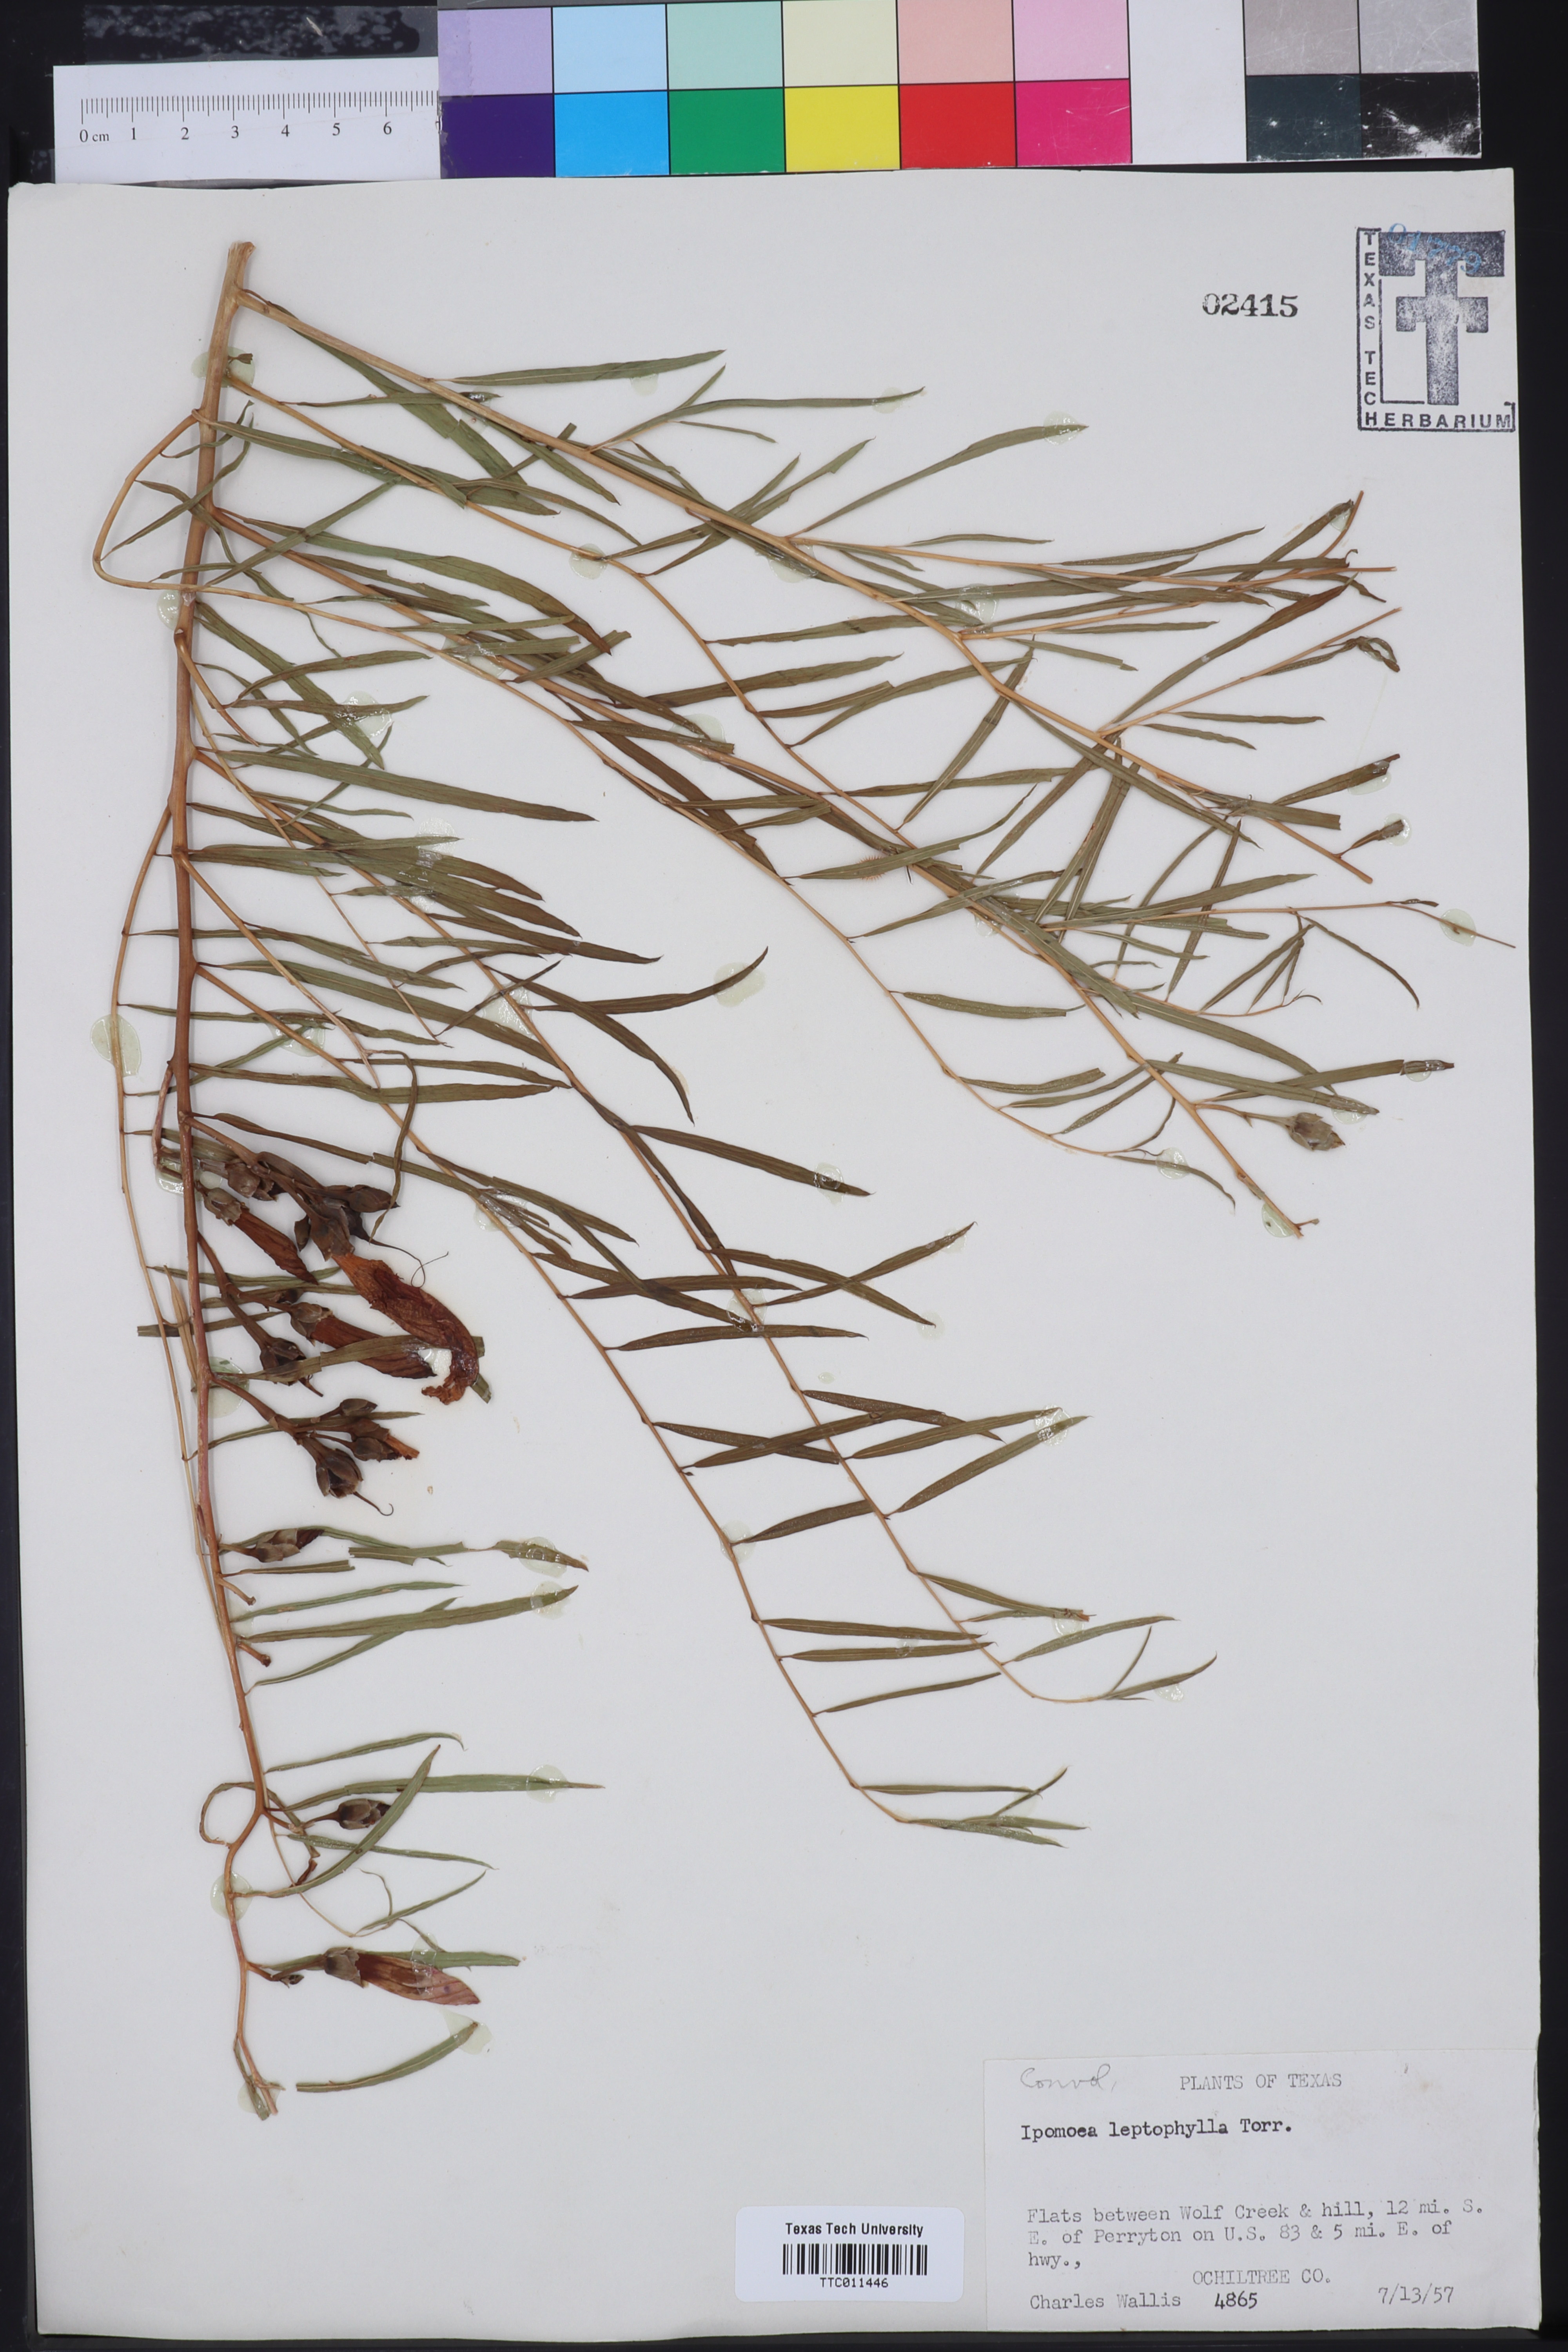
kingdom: Plantae
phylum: Tracheophyta
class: Magnoliopsida
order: Solanales
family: Convolvulaceae
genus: Ipomoea
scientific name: Ipomoea leptophylla
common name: Bush moonflower
